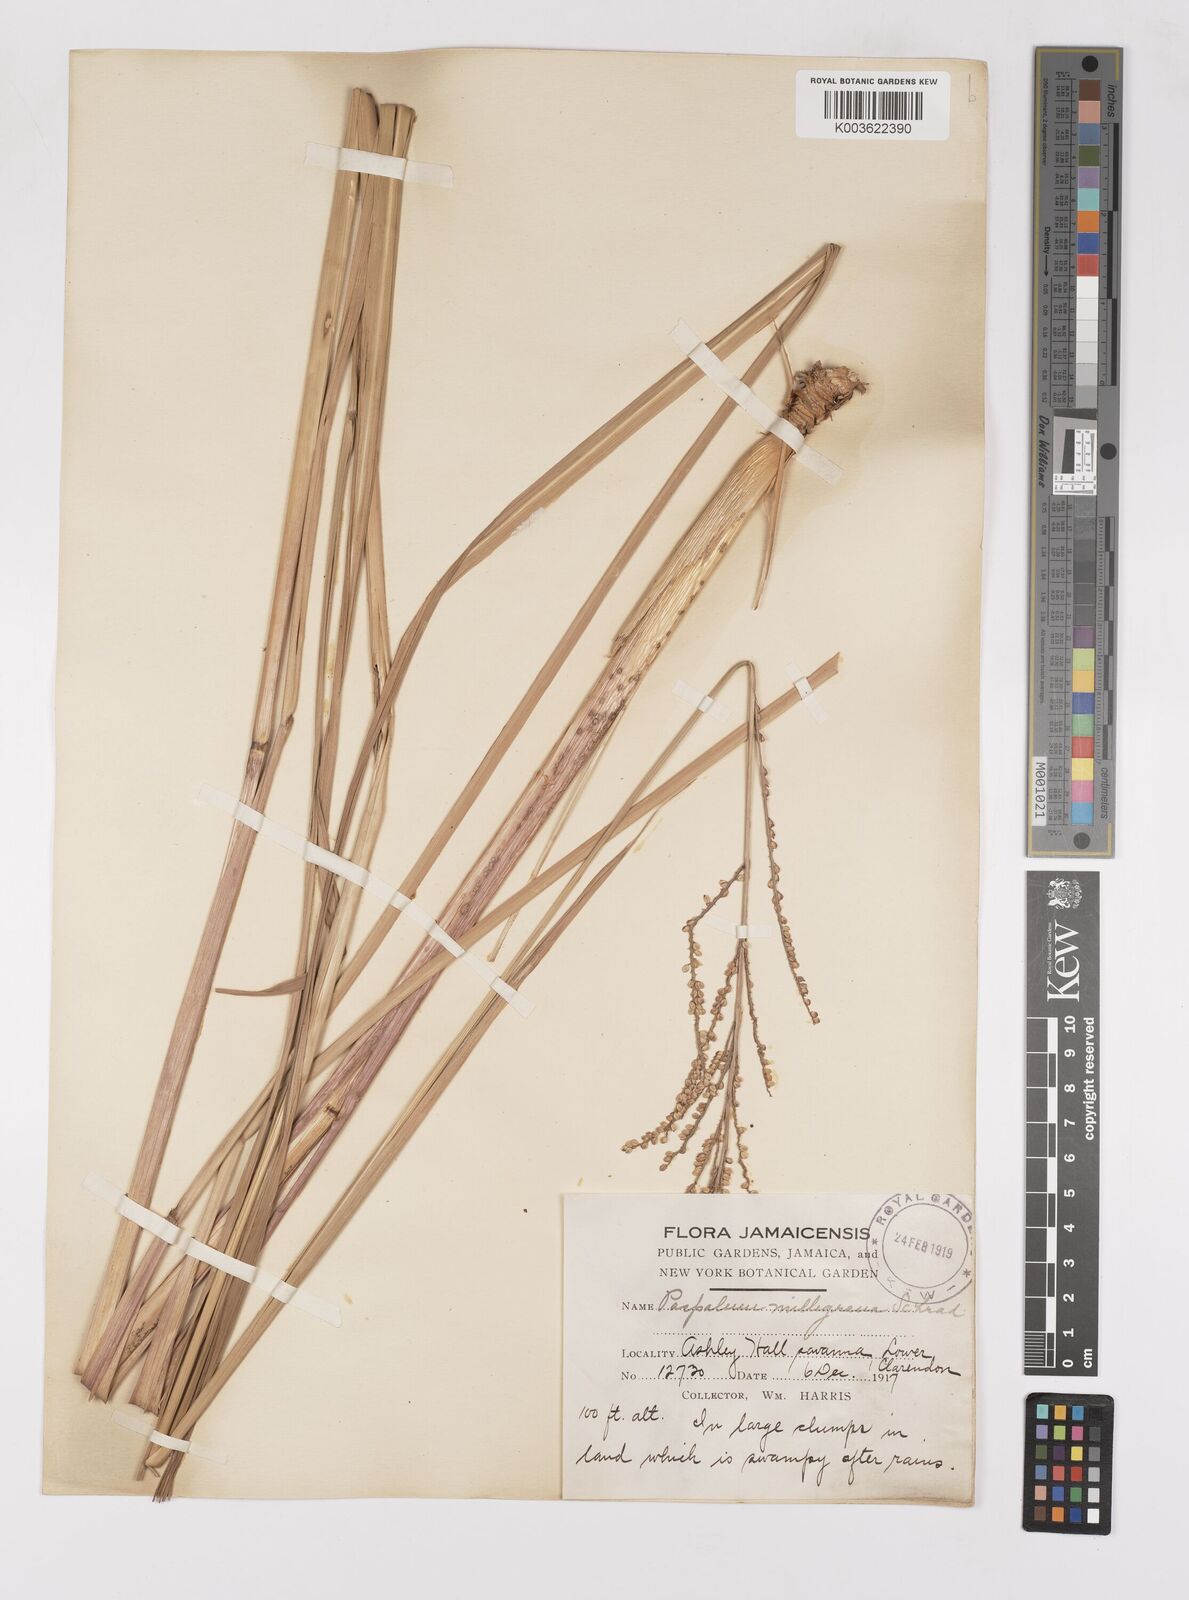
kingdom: Plantae
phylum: Tracheophyta
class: Liliopsida
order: Poales
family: Poaceae
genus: Paspalum
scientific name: Paspalum millegranum
